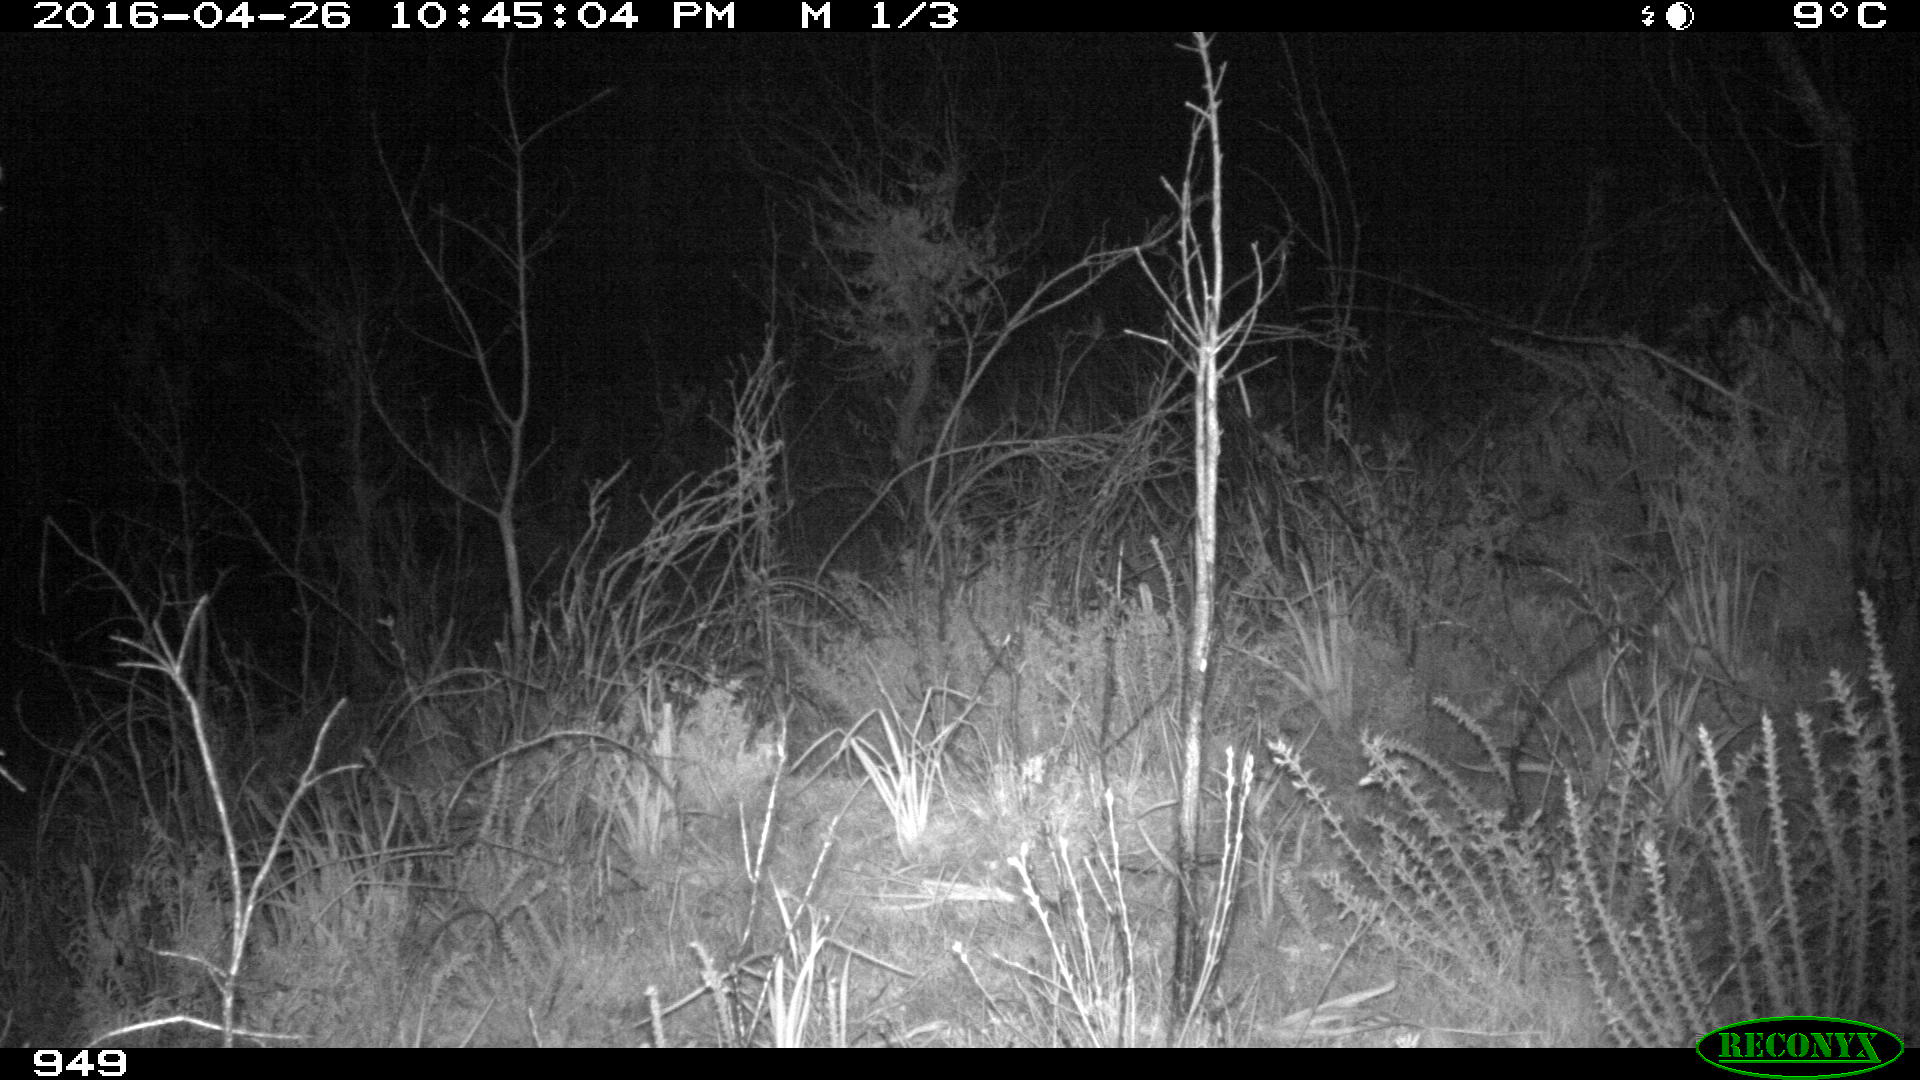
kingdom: Animalia
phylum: Chordata
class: Mammalia
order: Artiodactyla
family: Suidae
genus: Sus
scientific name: Sus scrofa
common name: Wild boar
